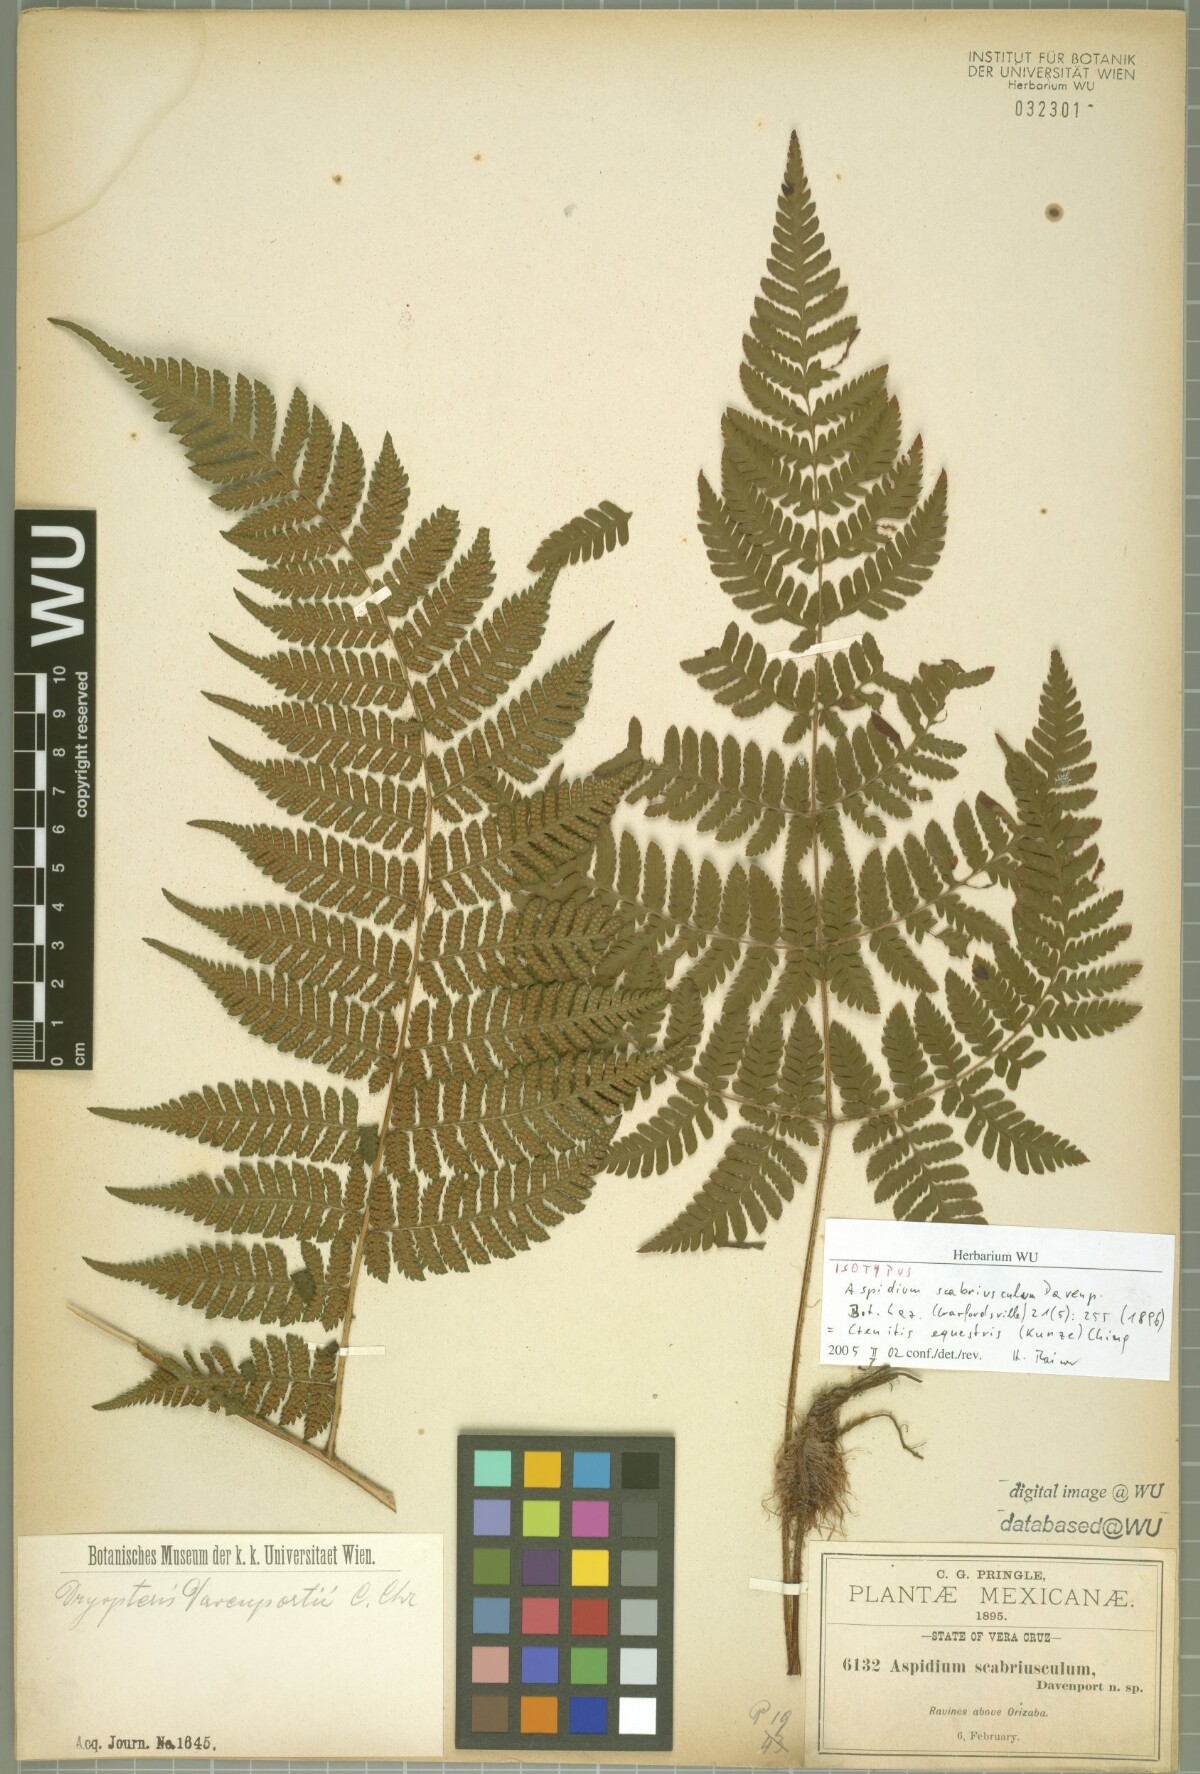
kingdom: Plantae
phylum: Tracheophyta
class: Polypodiopsida
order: Polypodiales
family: Dryopteridaceae
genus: Ctenitis
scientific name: Ctenitis equestris
